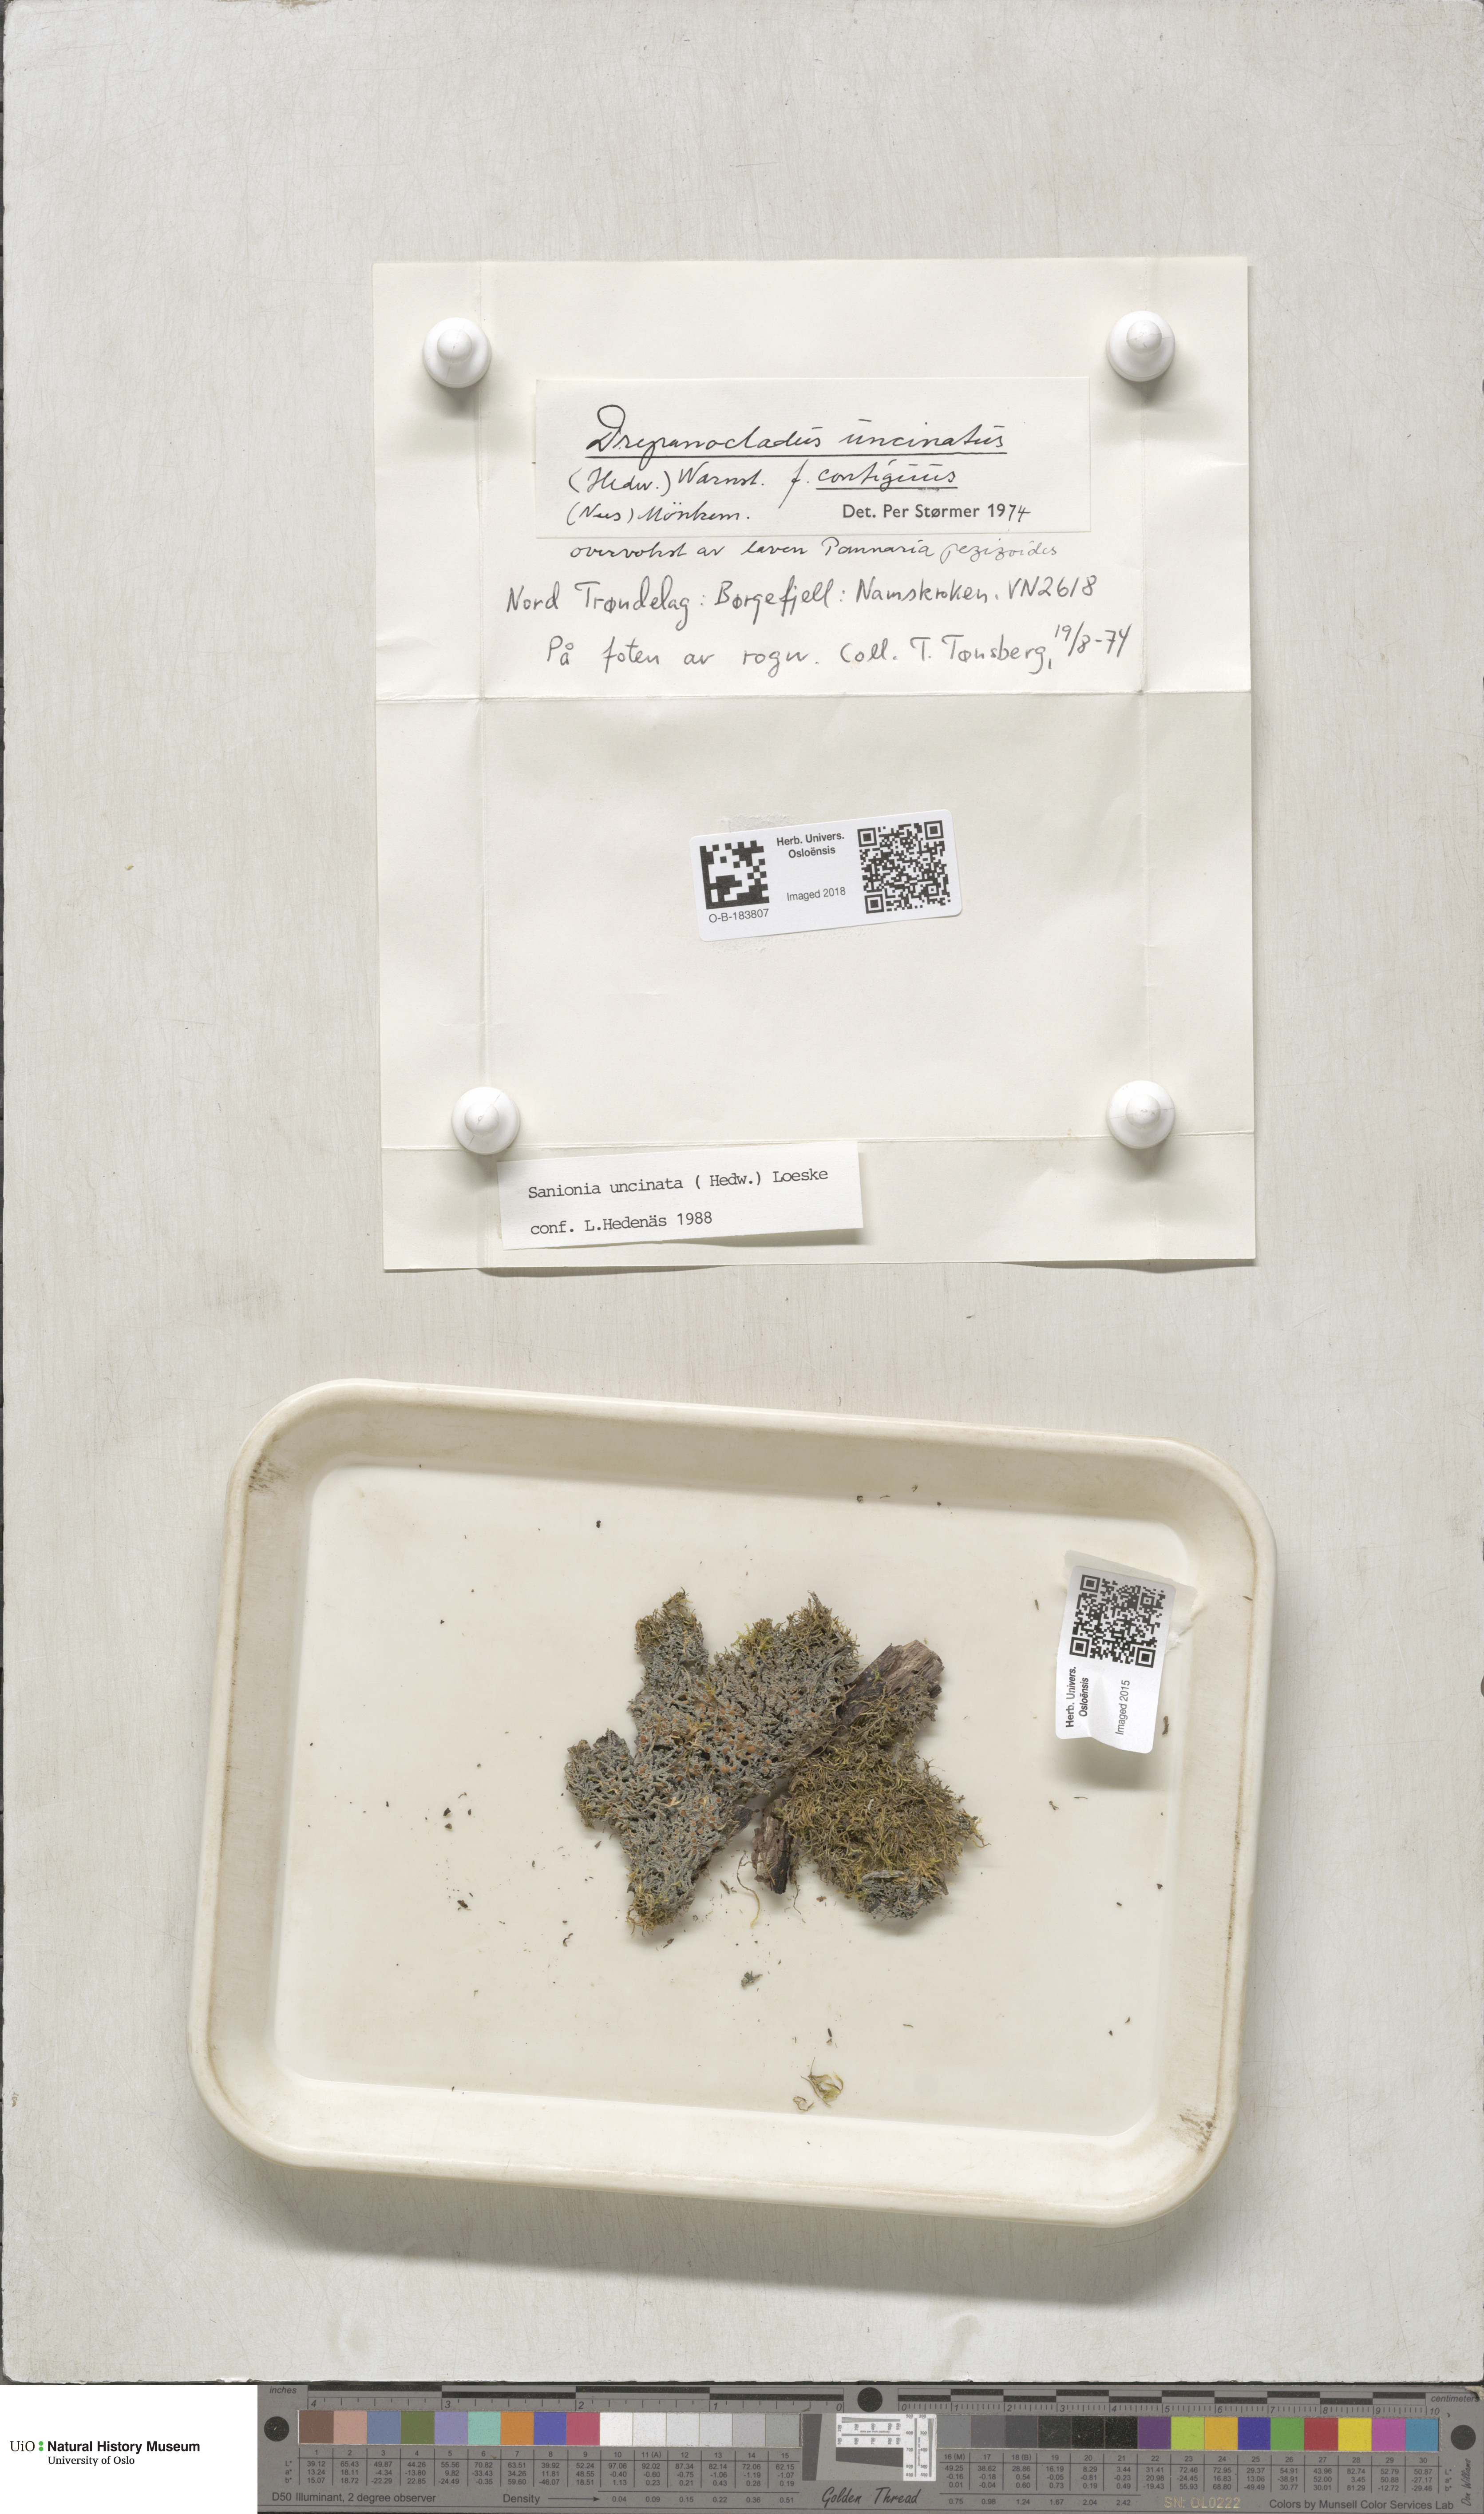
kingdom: Plantae
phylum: Bryophyta
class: Bryopsida
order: Hypnales
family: Scorpidiaceae
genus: Sanionia
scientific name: Sanionia uncinata
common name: Sickle moss
